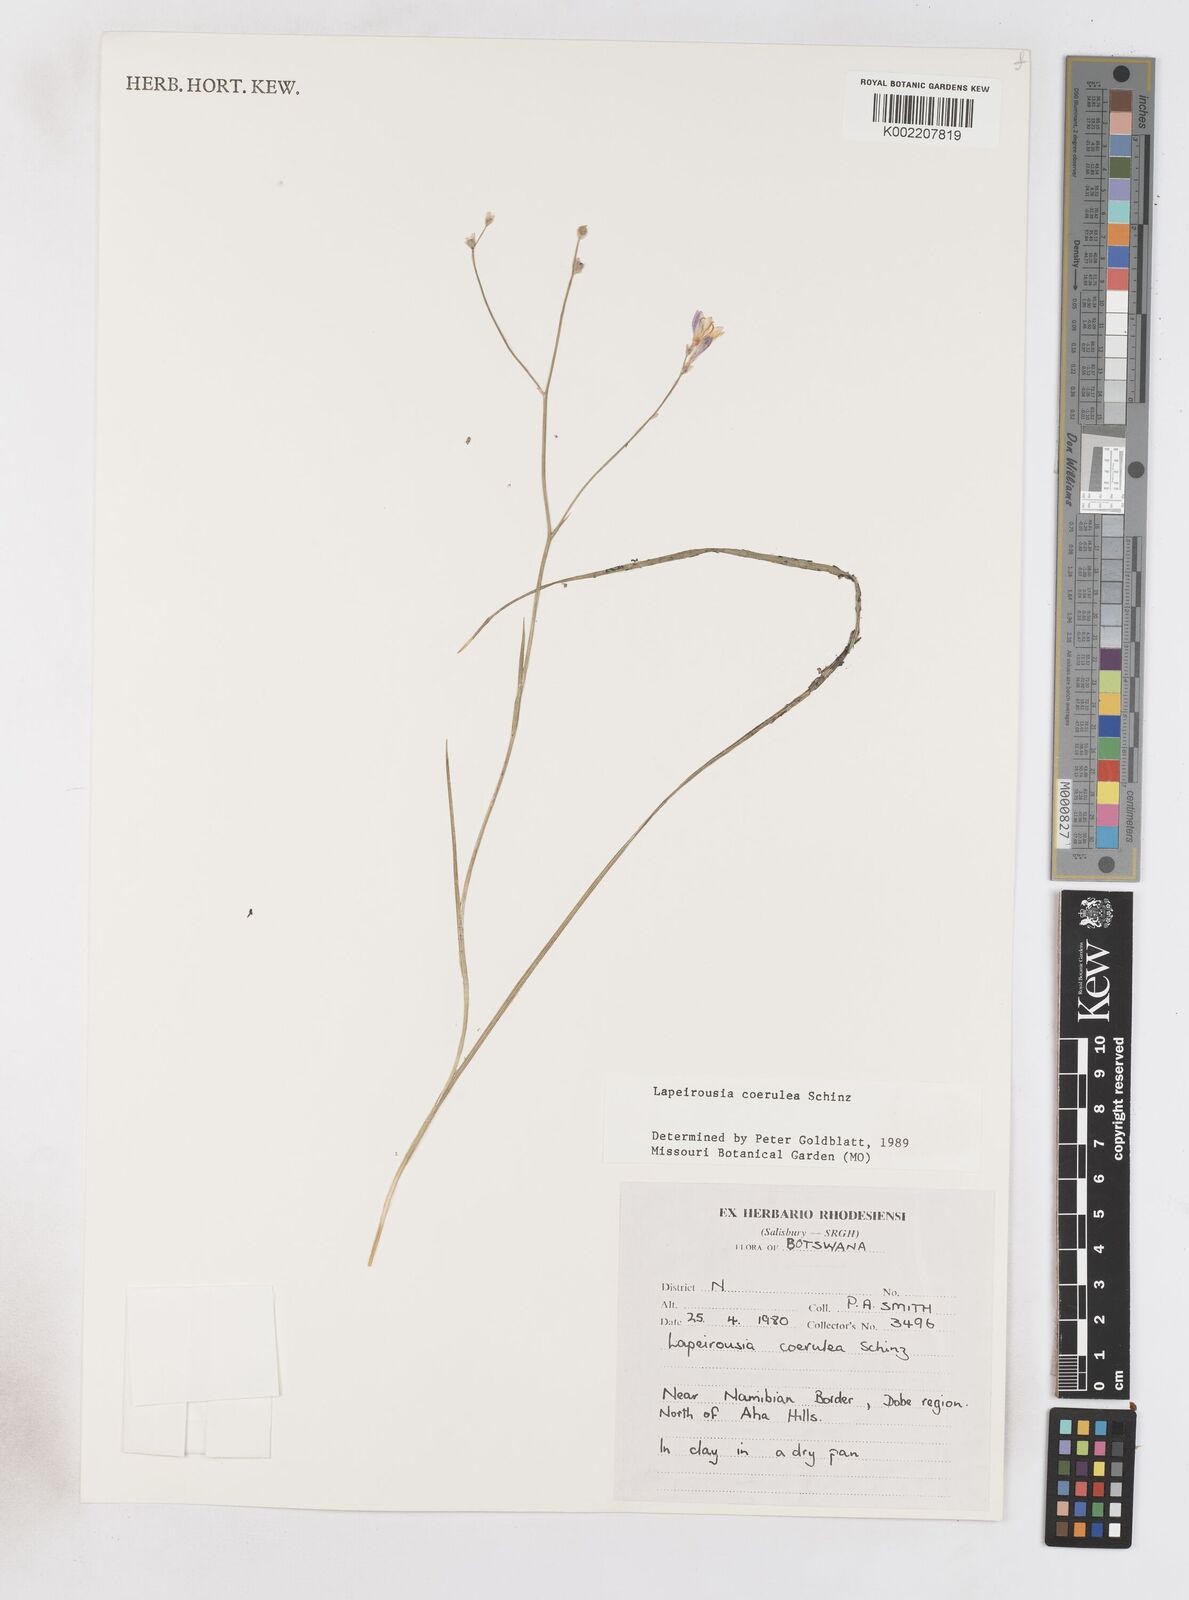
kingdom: Plantae
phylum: Tracheophyta
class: Liliopsida
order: Asparagales
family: Iridaceae
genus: Afrosolen
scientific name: Afrosolen coeruleus
